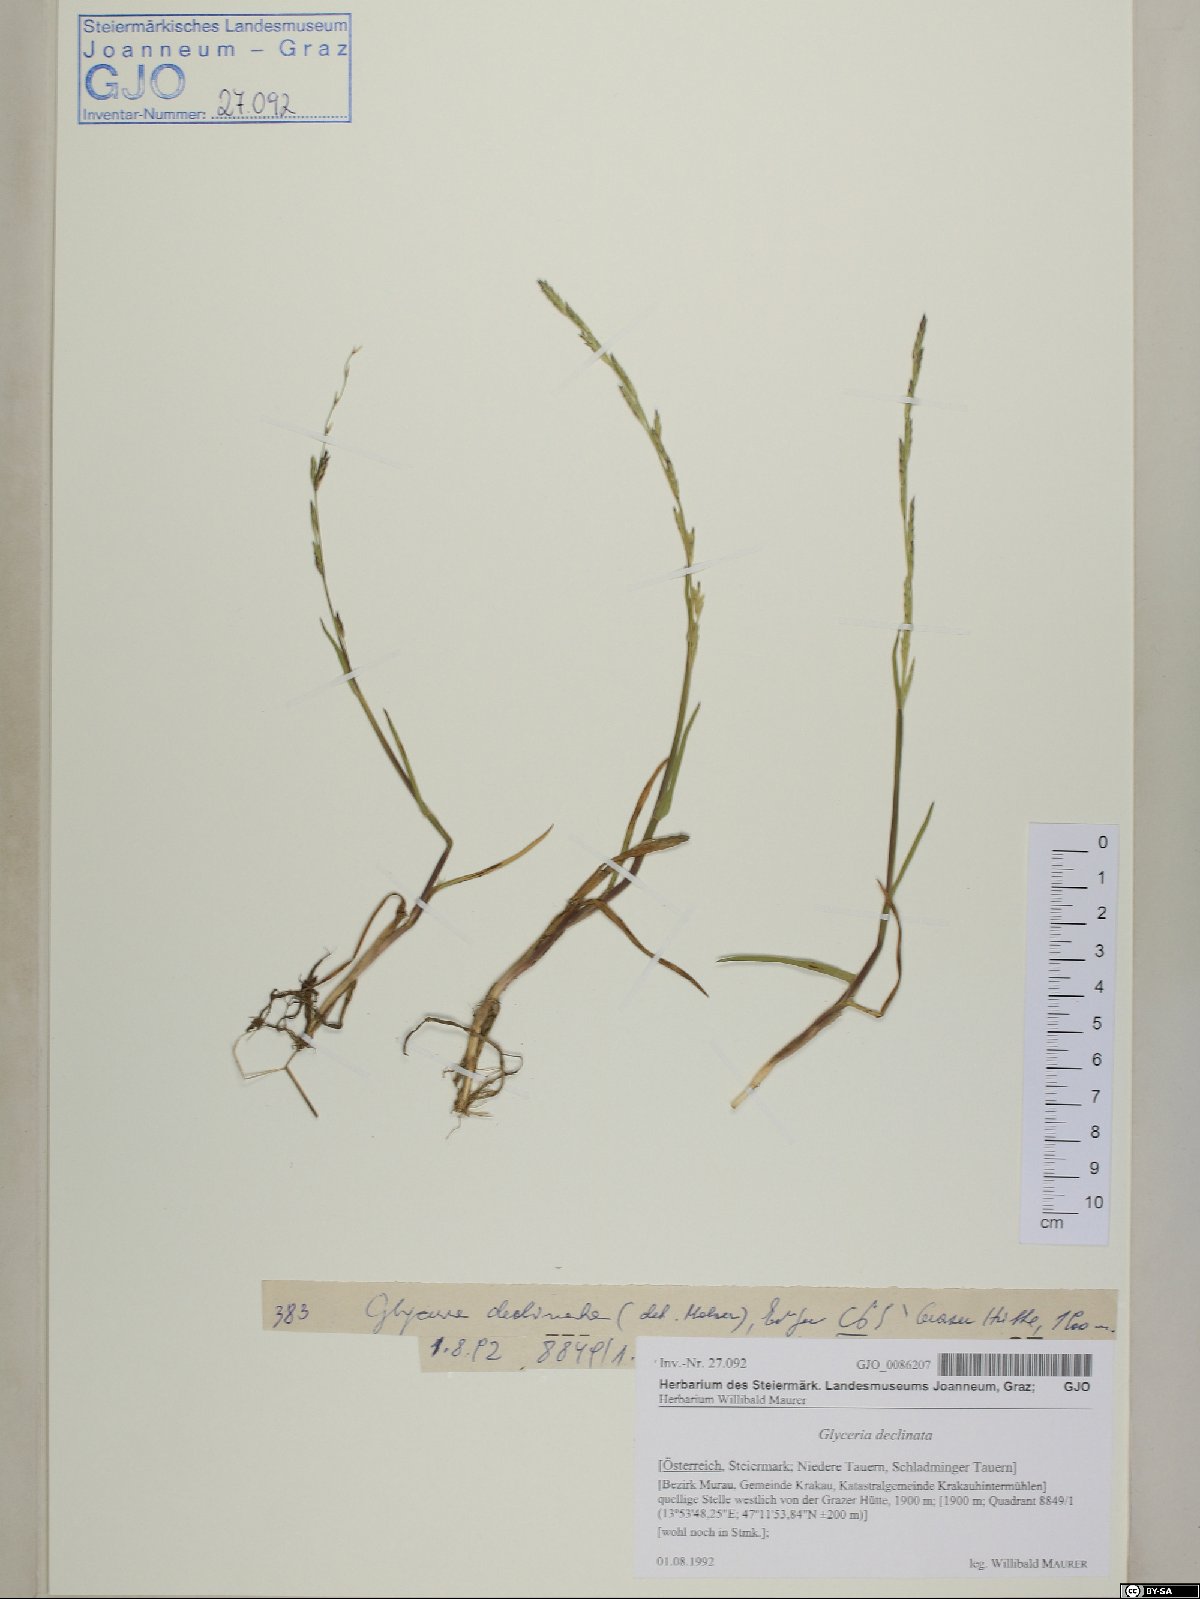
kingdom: Plantae
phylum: Tracheophyta
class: Liliopsida
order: Poales
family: Poaceae
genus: Glyceria
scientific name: Glyceria declinata
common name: Small sweet-grass
